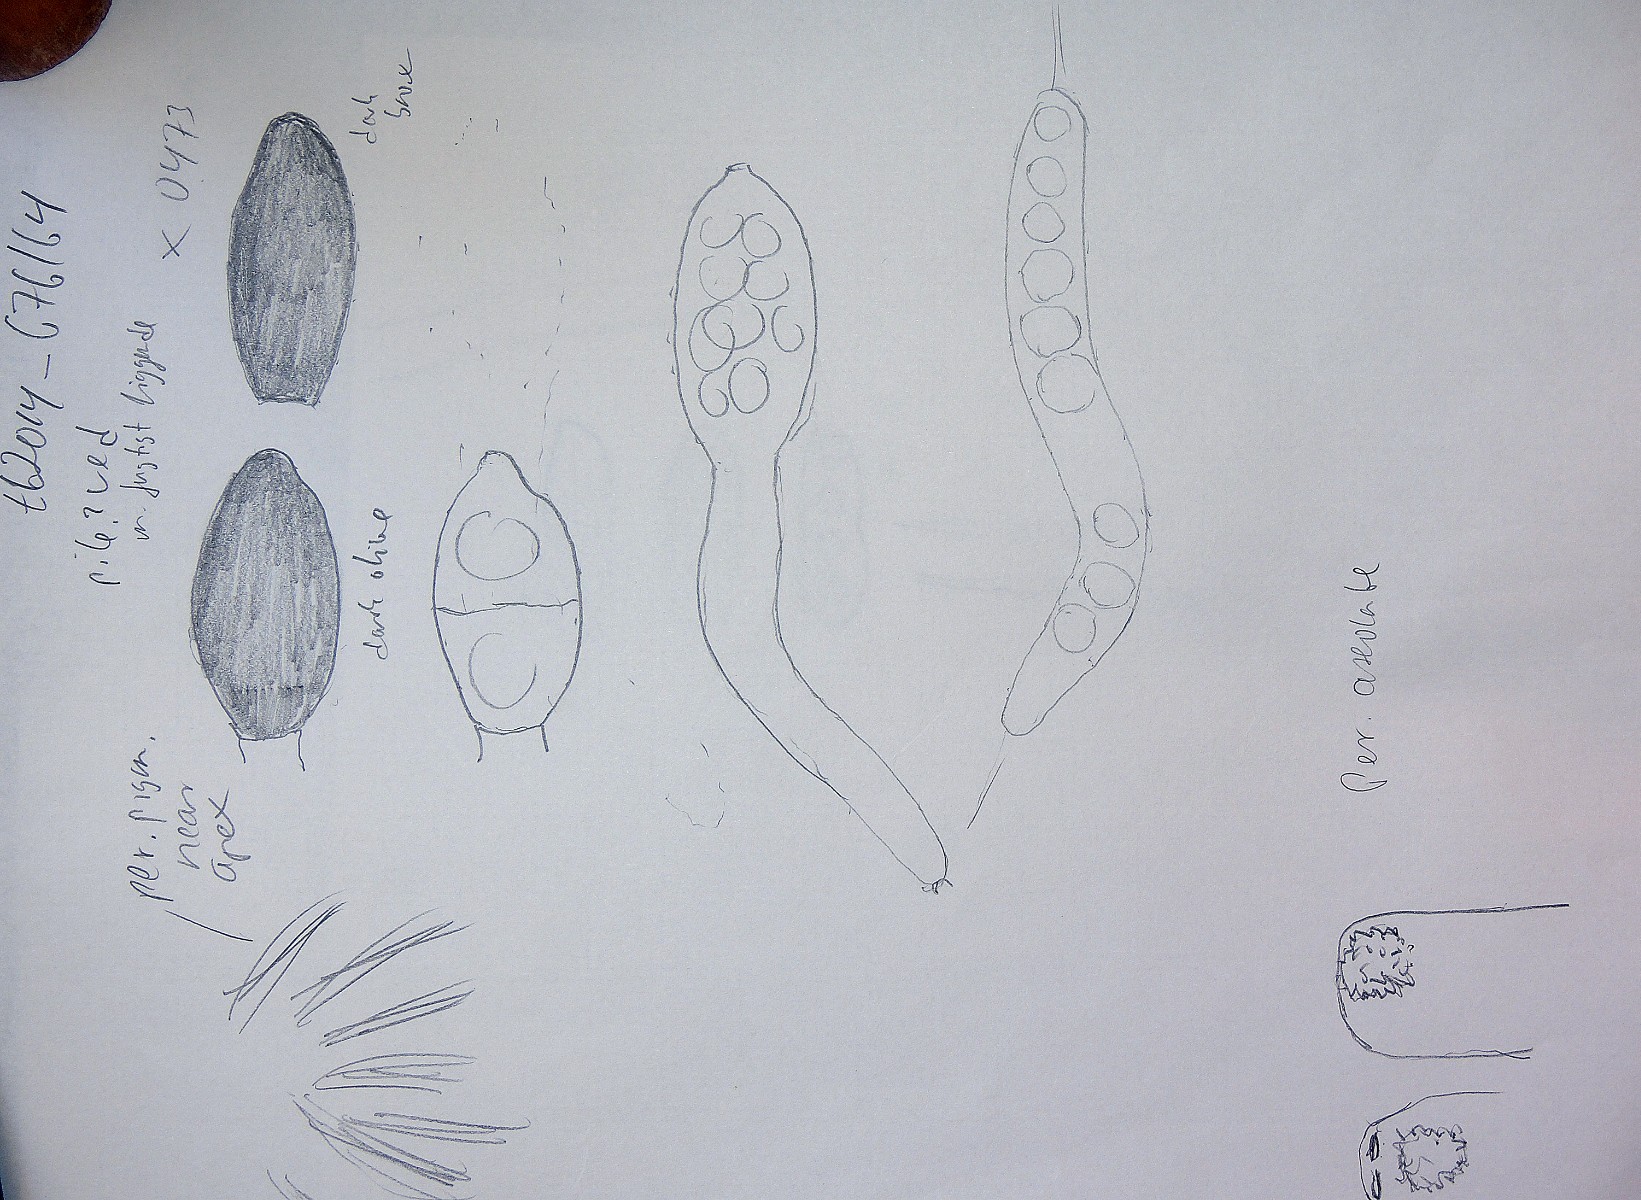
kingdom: Fungi
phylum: Ascomycota
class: Sordariomycetes
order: Sordariales
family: Neoschizotheciaceae
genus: Cercophora
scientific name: Cercophora
